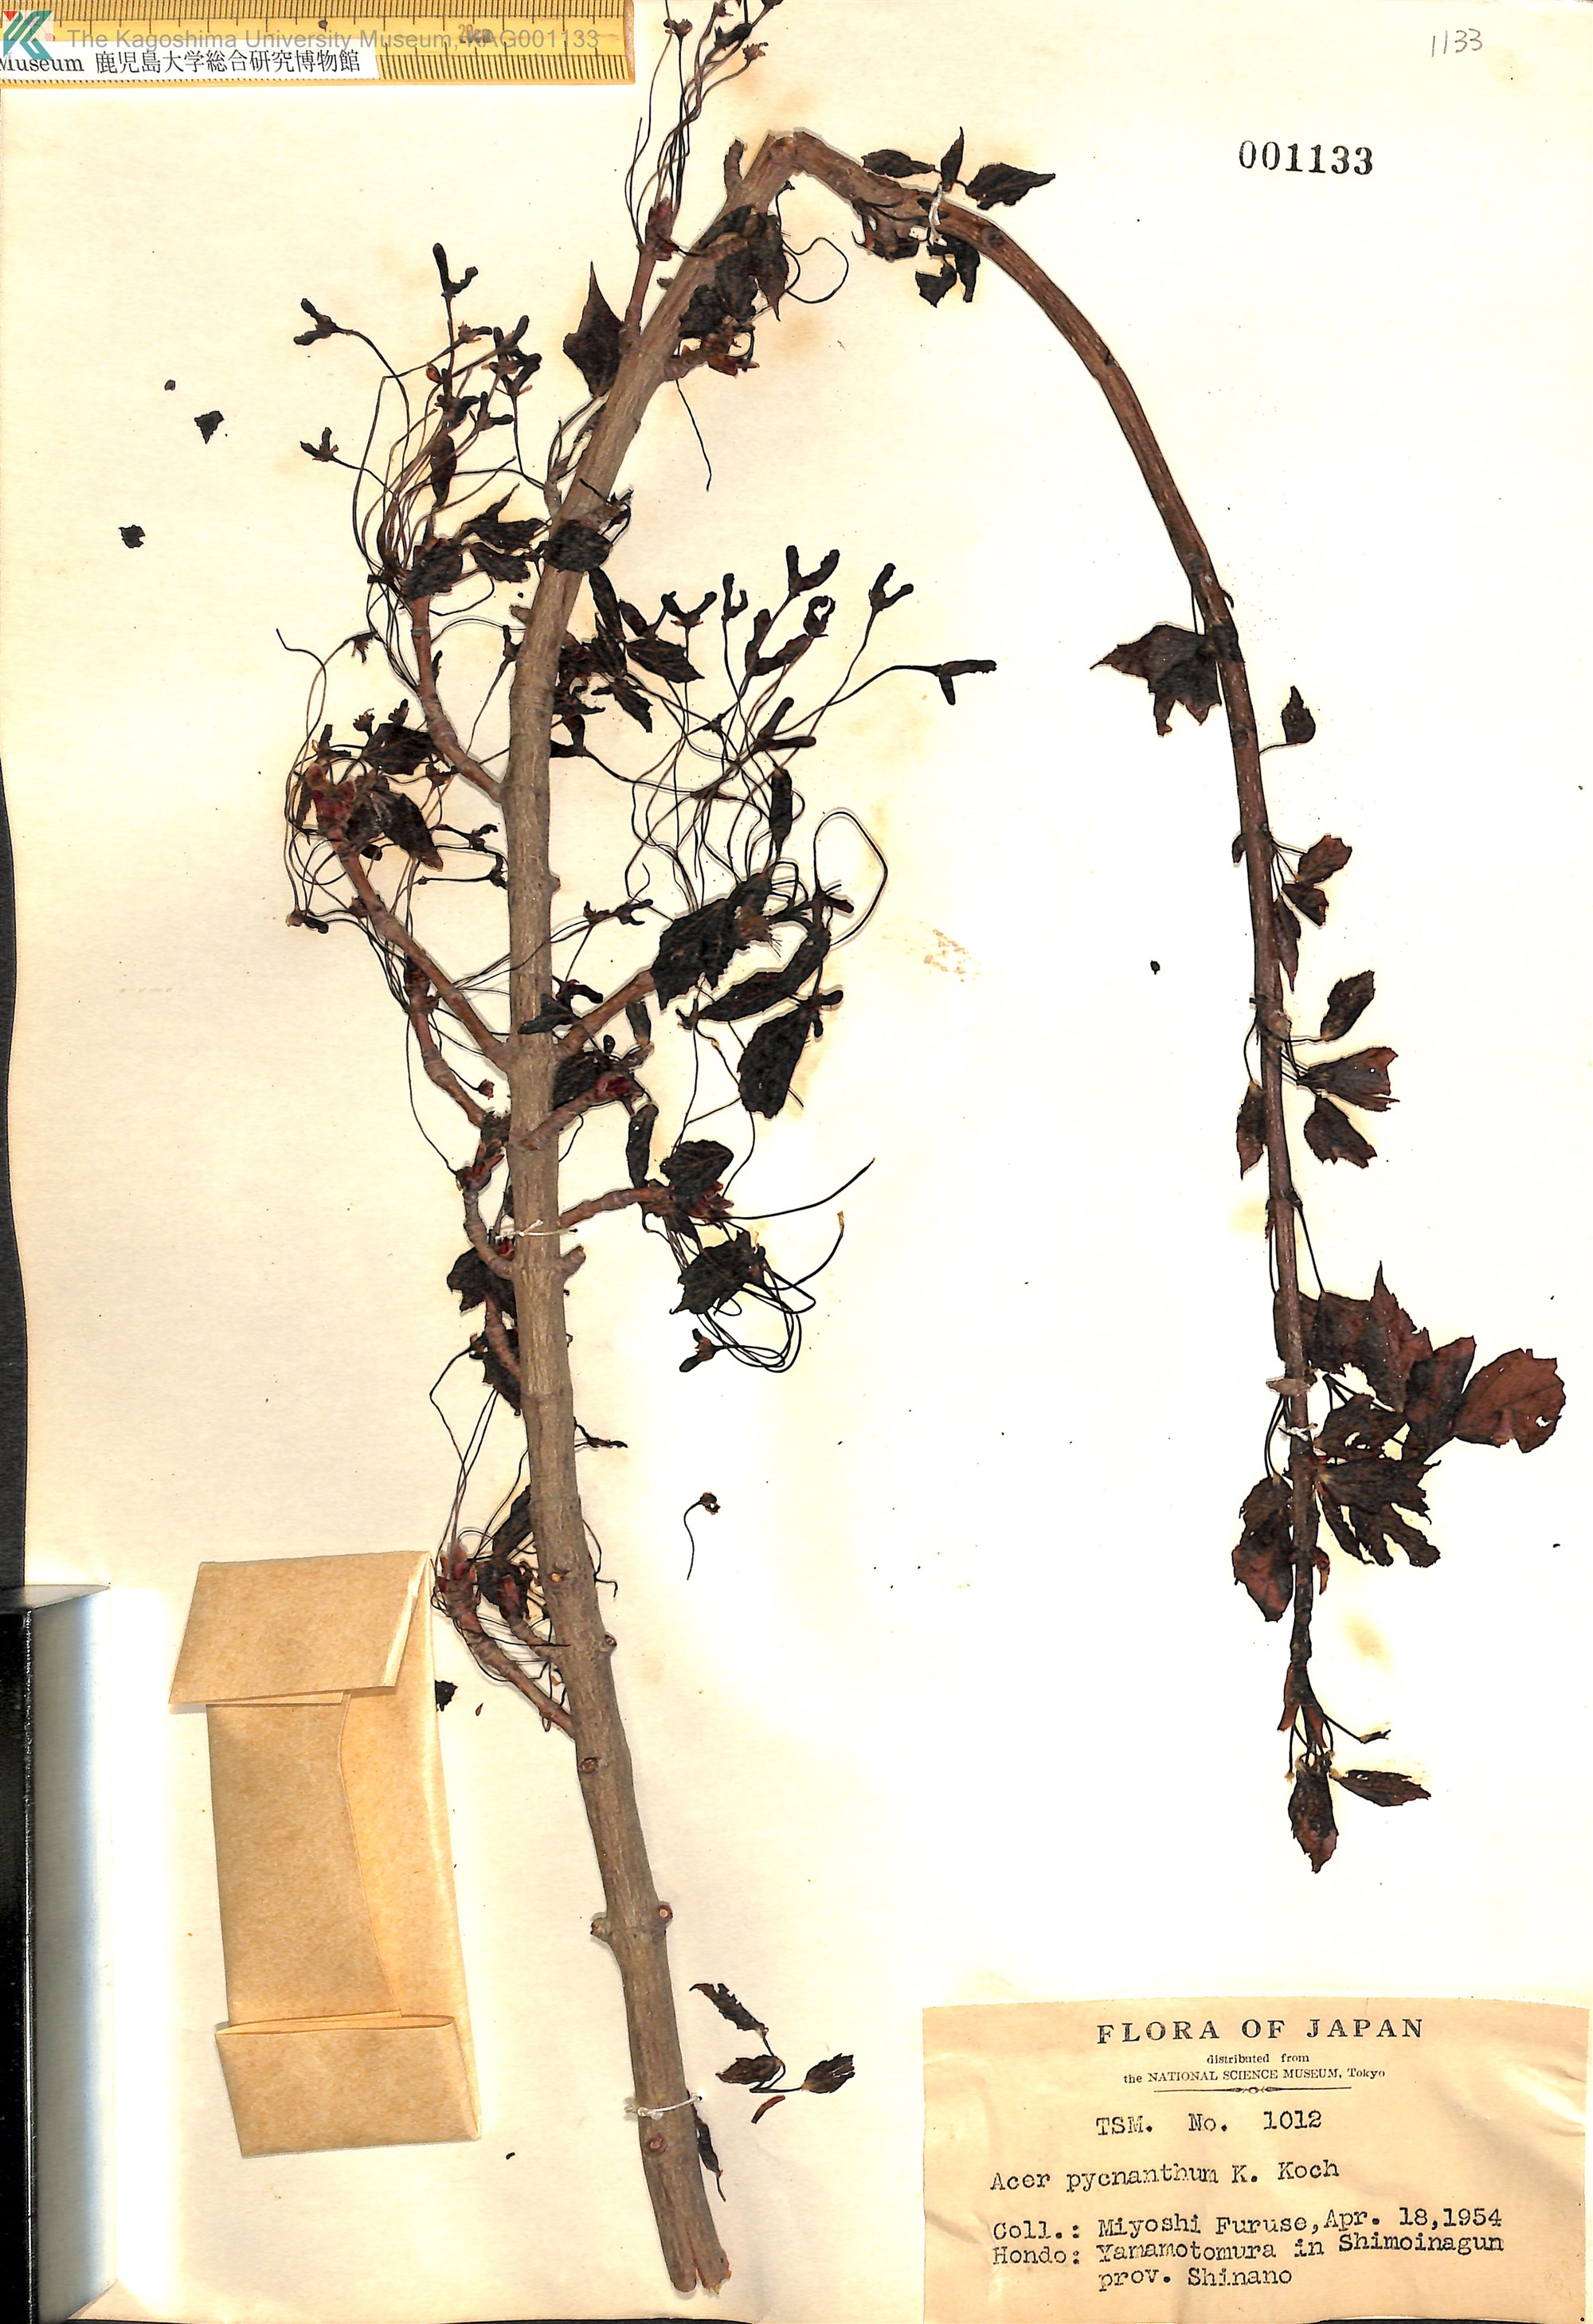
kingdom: Plantae
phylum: Tracheophyta
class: Magnoliopsida
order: Sapindales
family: Sapindaceae
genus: Acer
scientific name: Acer pycnanthum
